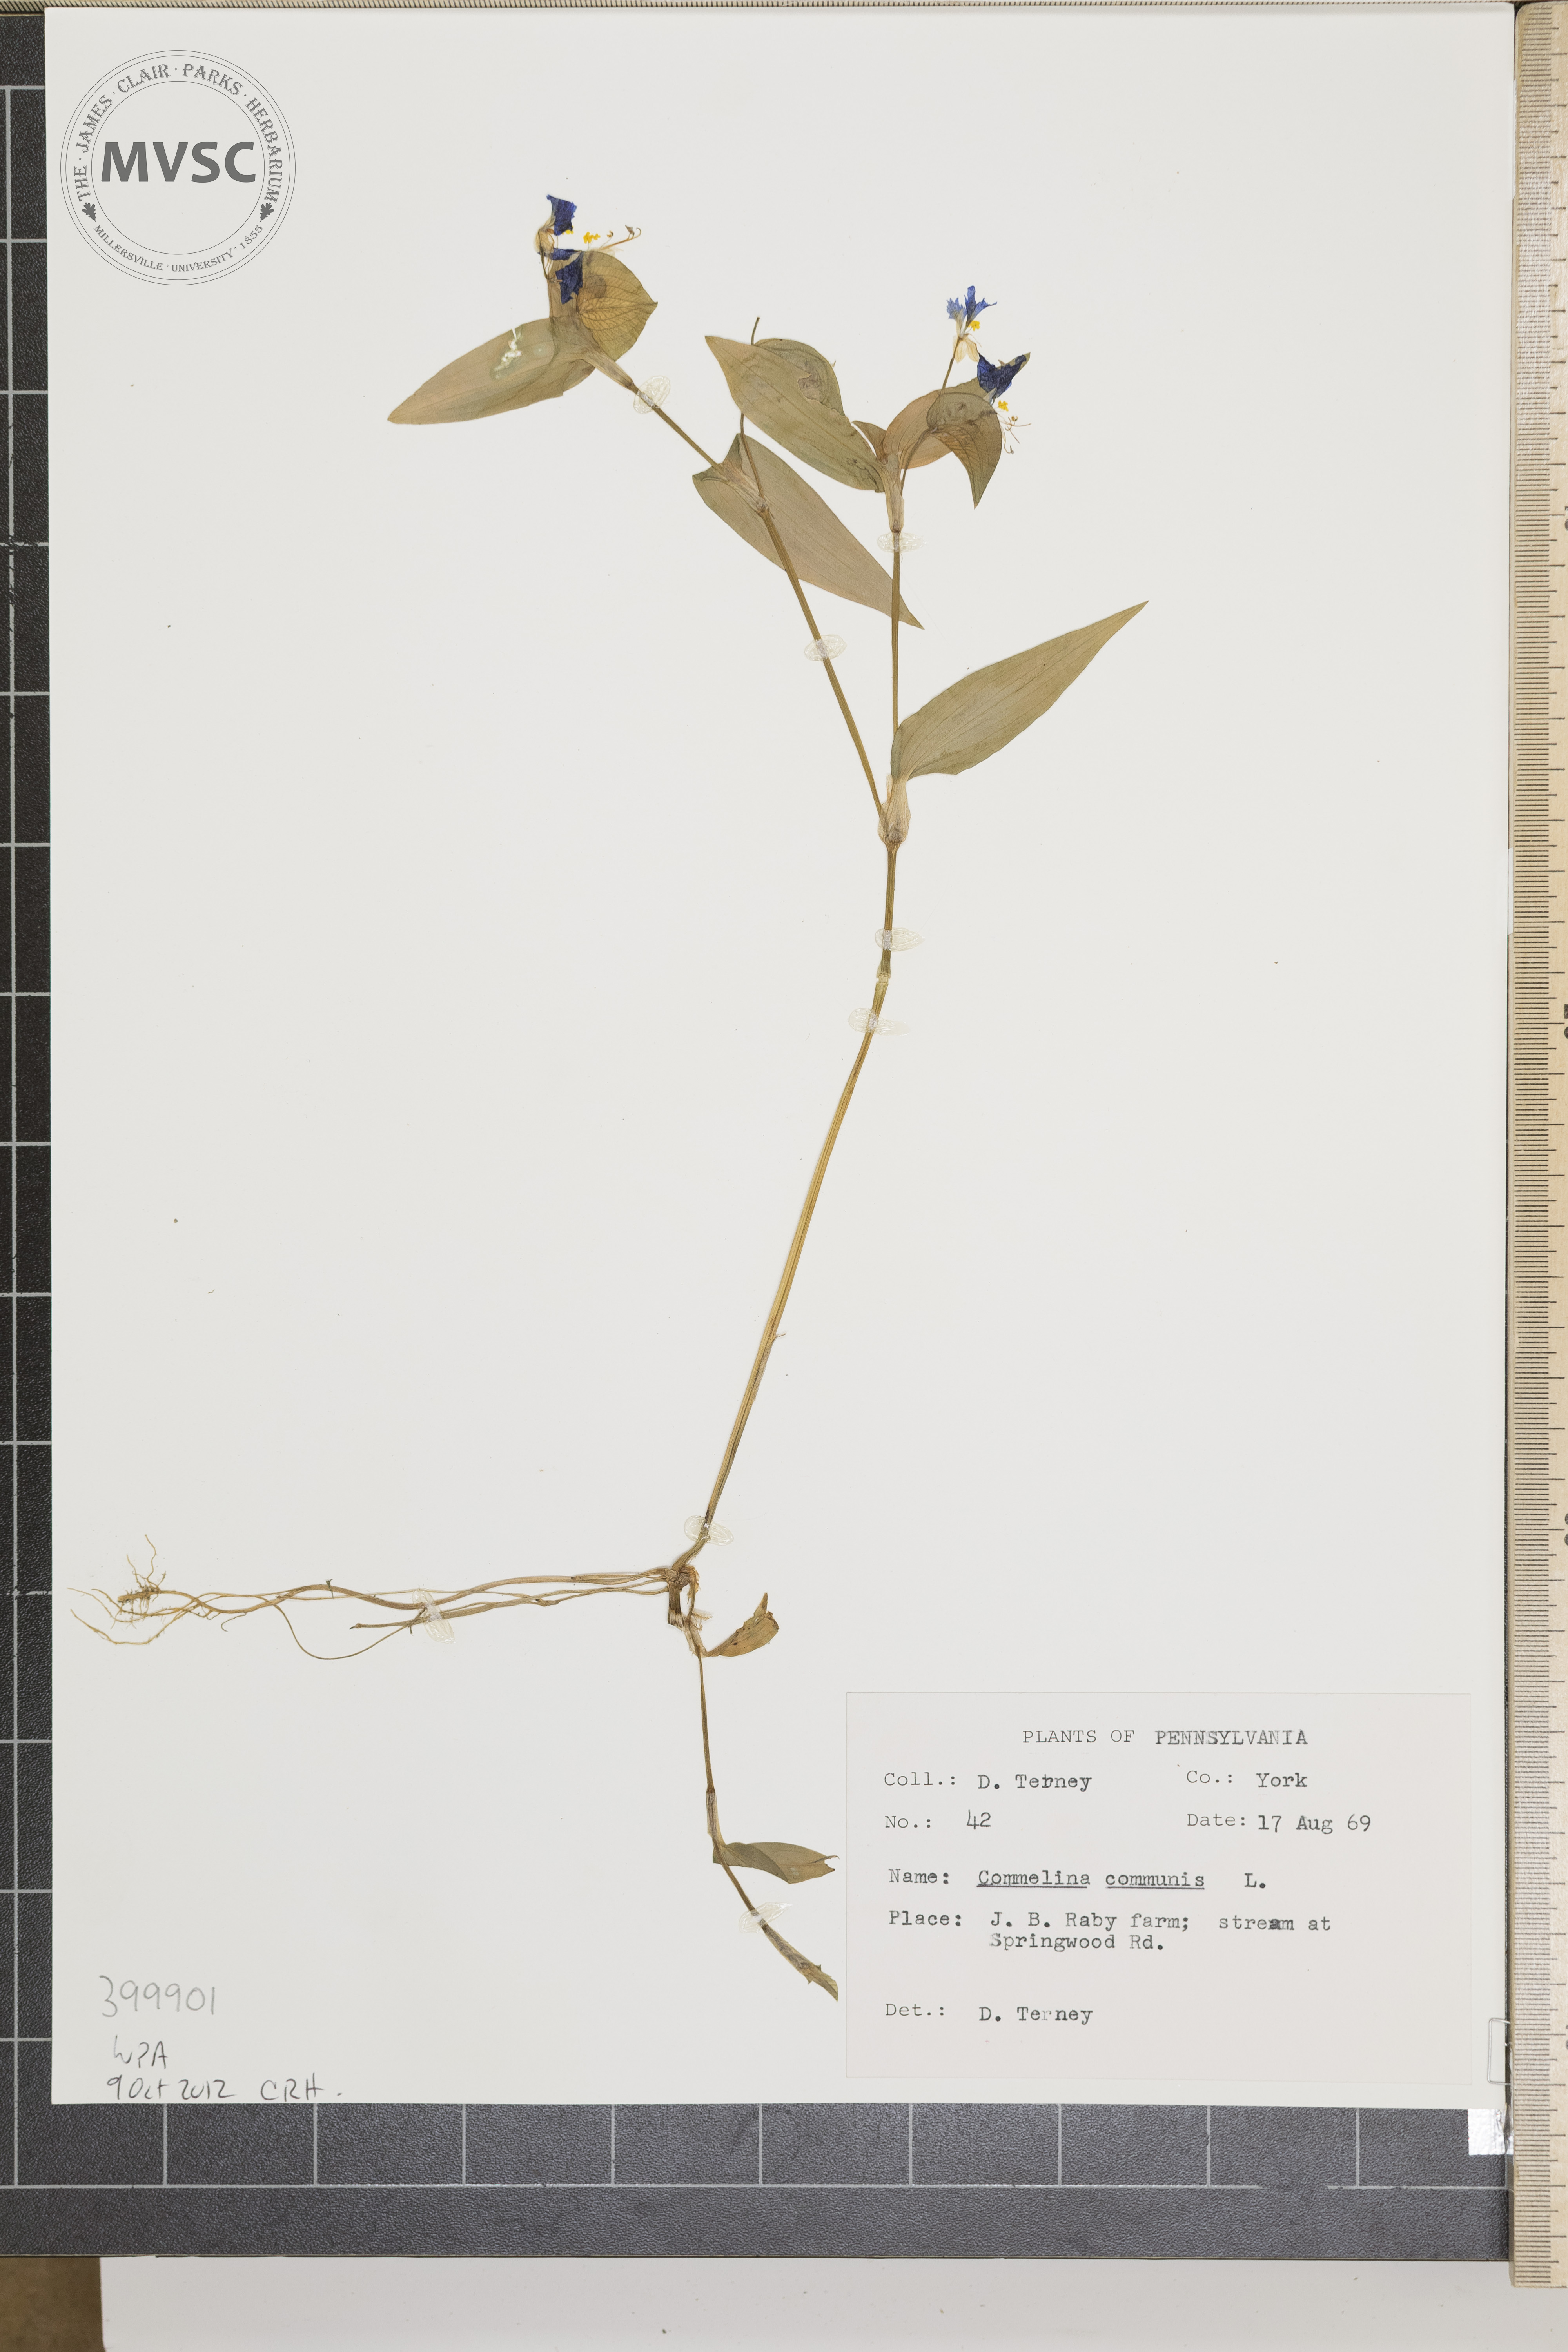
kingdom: Plantae
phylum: Tracheophyta
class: Liliopsida
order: Commelinales
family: Commelinaceae
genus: Commelina
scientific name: Commelina communis
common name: Asiatic dayflower
